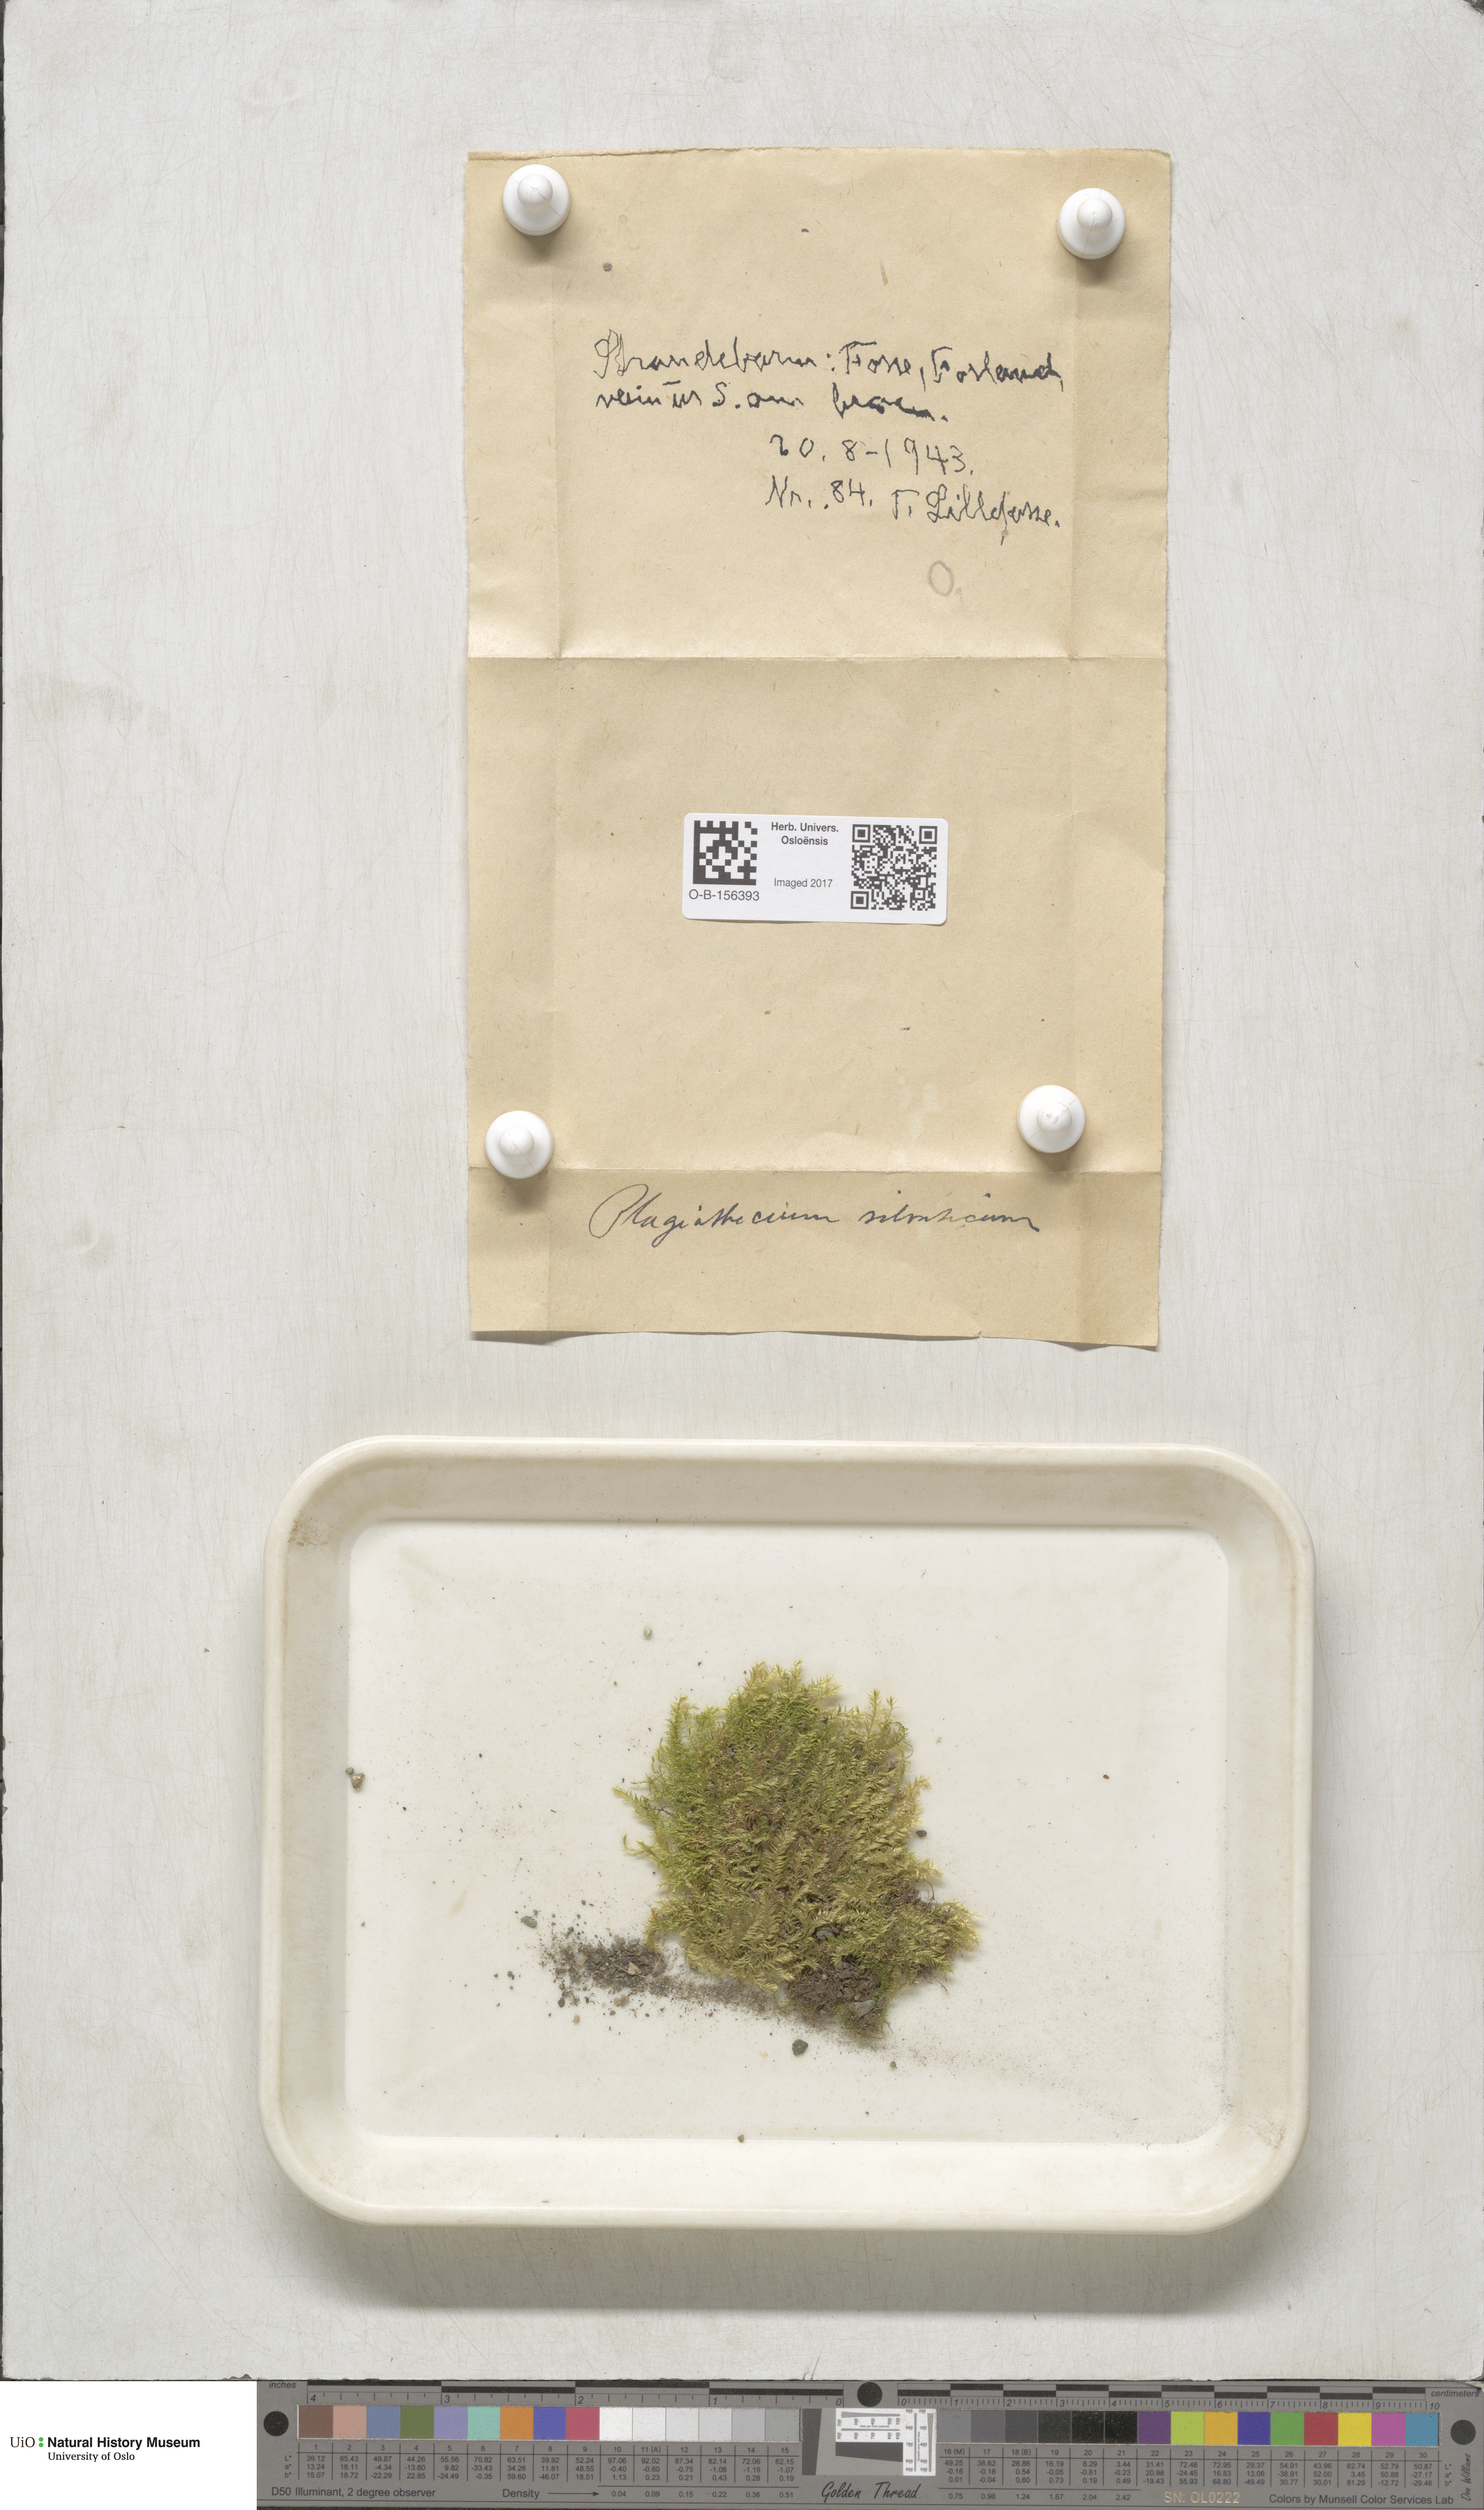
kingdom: Plantae
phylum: Bryophyta
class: Bryopsida
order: Hypnales
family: Plagiotheciaceae
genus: Plagiothecium
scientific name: Plagiothecium nemorale
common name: Woodsy silk-moss
